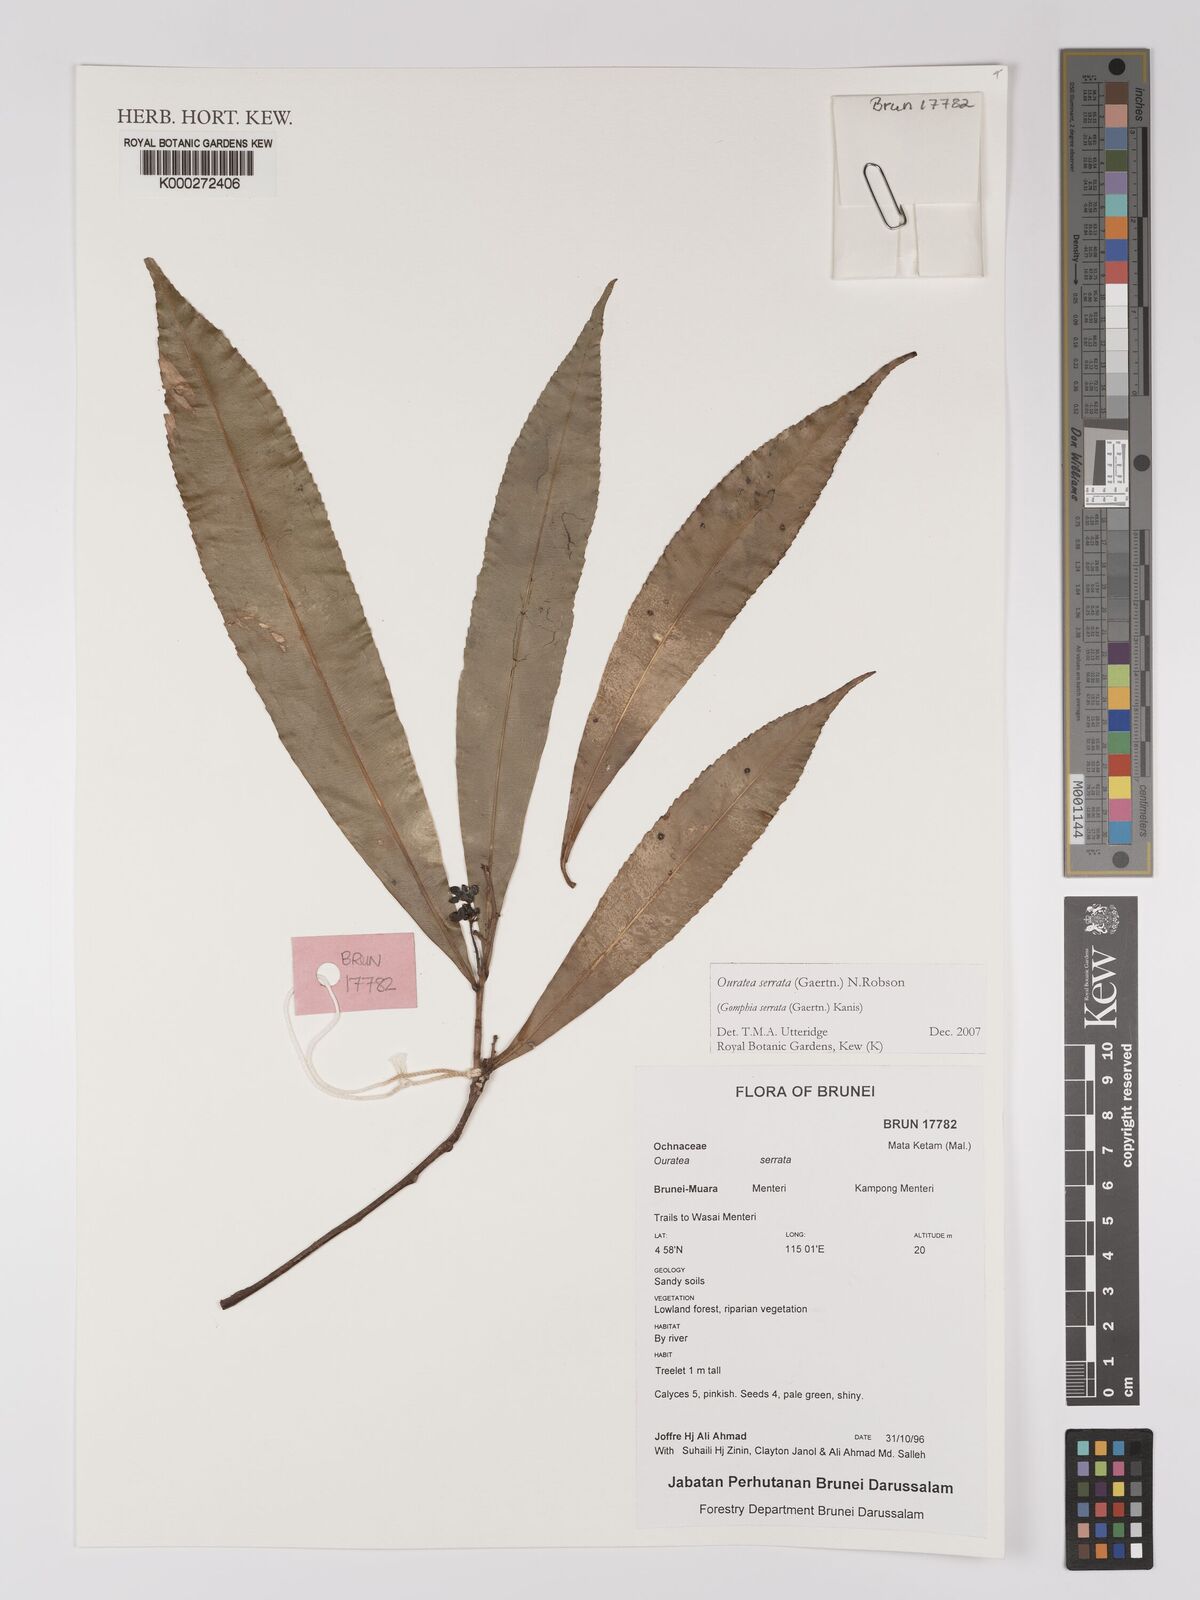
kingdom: Plantae
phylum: Tracheophyta
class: Magnoliopsida
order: Malpighiales
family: Ochnaceae
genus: Gomphia
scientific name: Gomphia serrata
